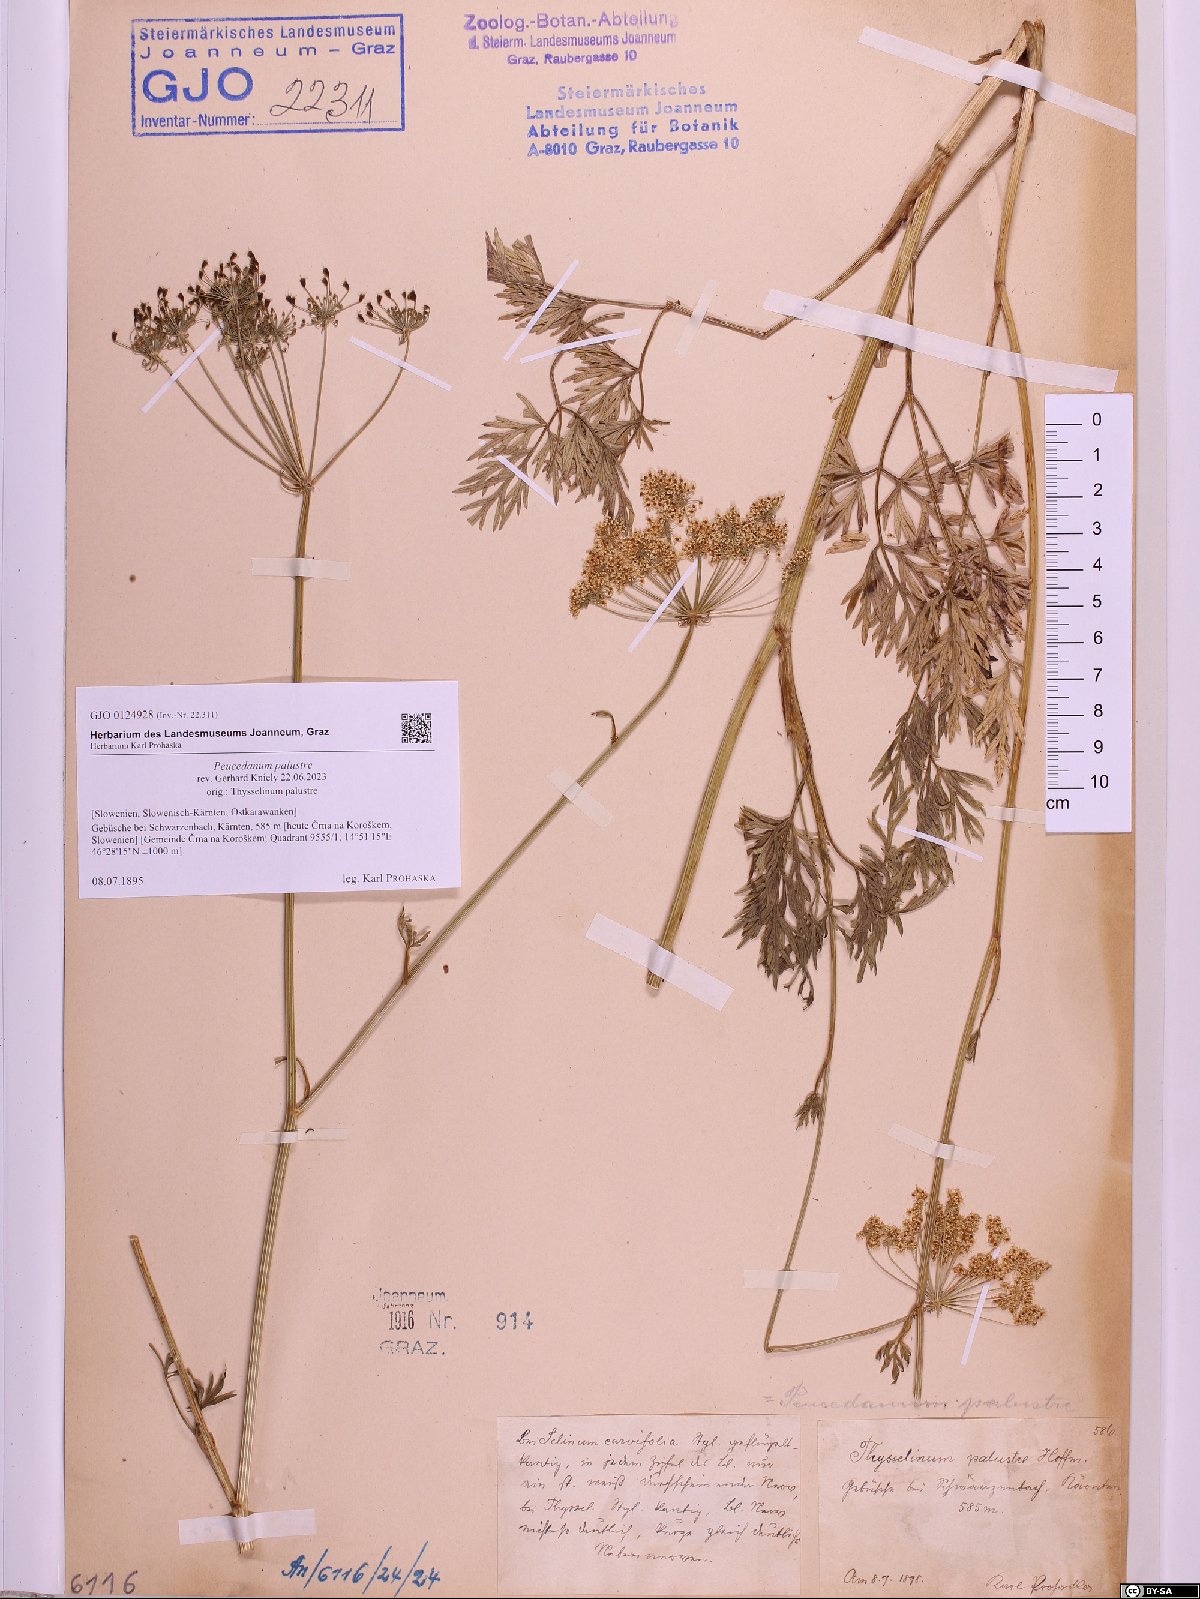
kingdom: Plantae
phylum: Tracheophyta
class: Magnoliopsida
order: Apiales
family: Apiaceae
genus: Thysselinum
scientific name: Thysselinum palustre
